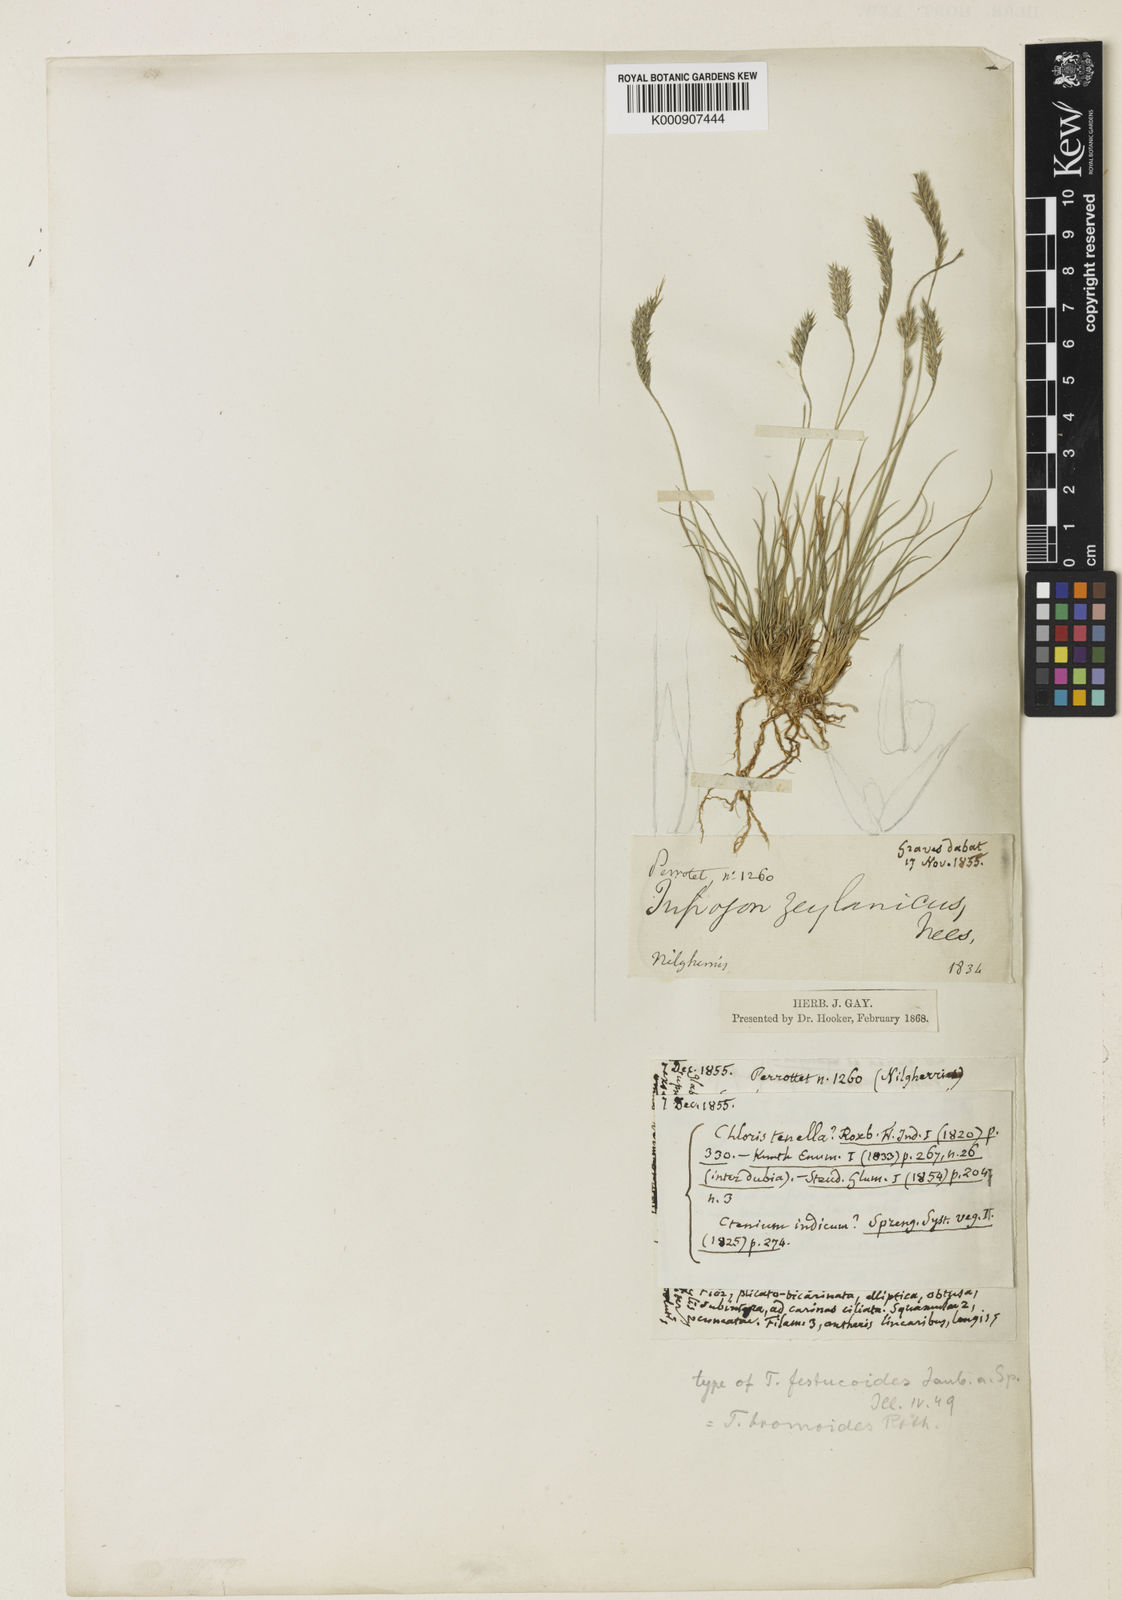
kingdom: Plantae
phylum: Tracheophyta
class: Liliopsida
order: Poales
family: Poaceae
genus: Tripogon
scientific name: Tripogon
